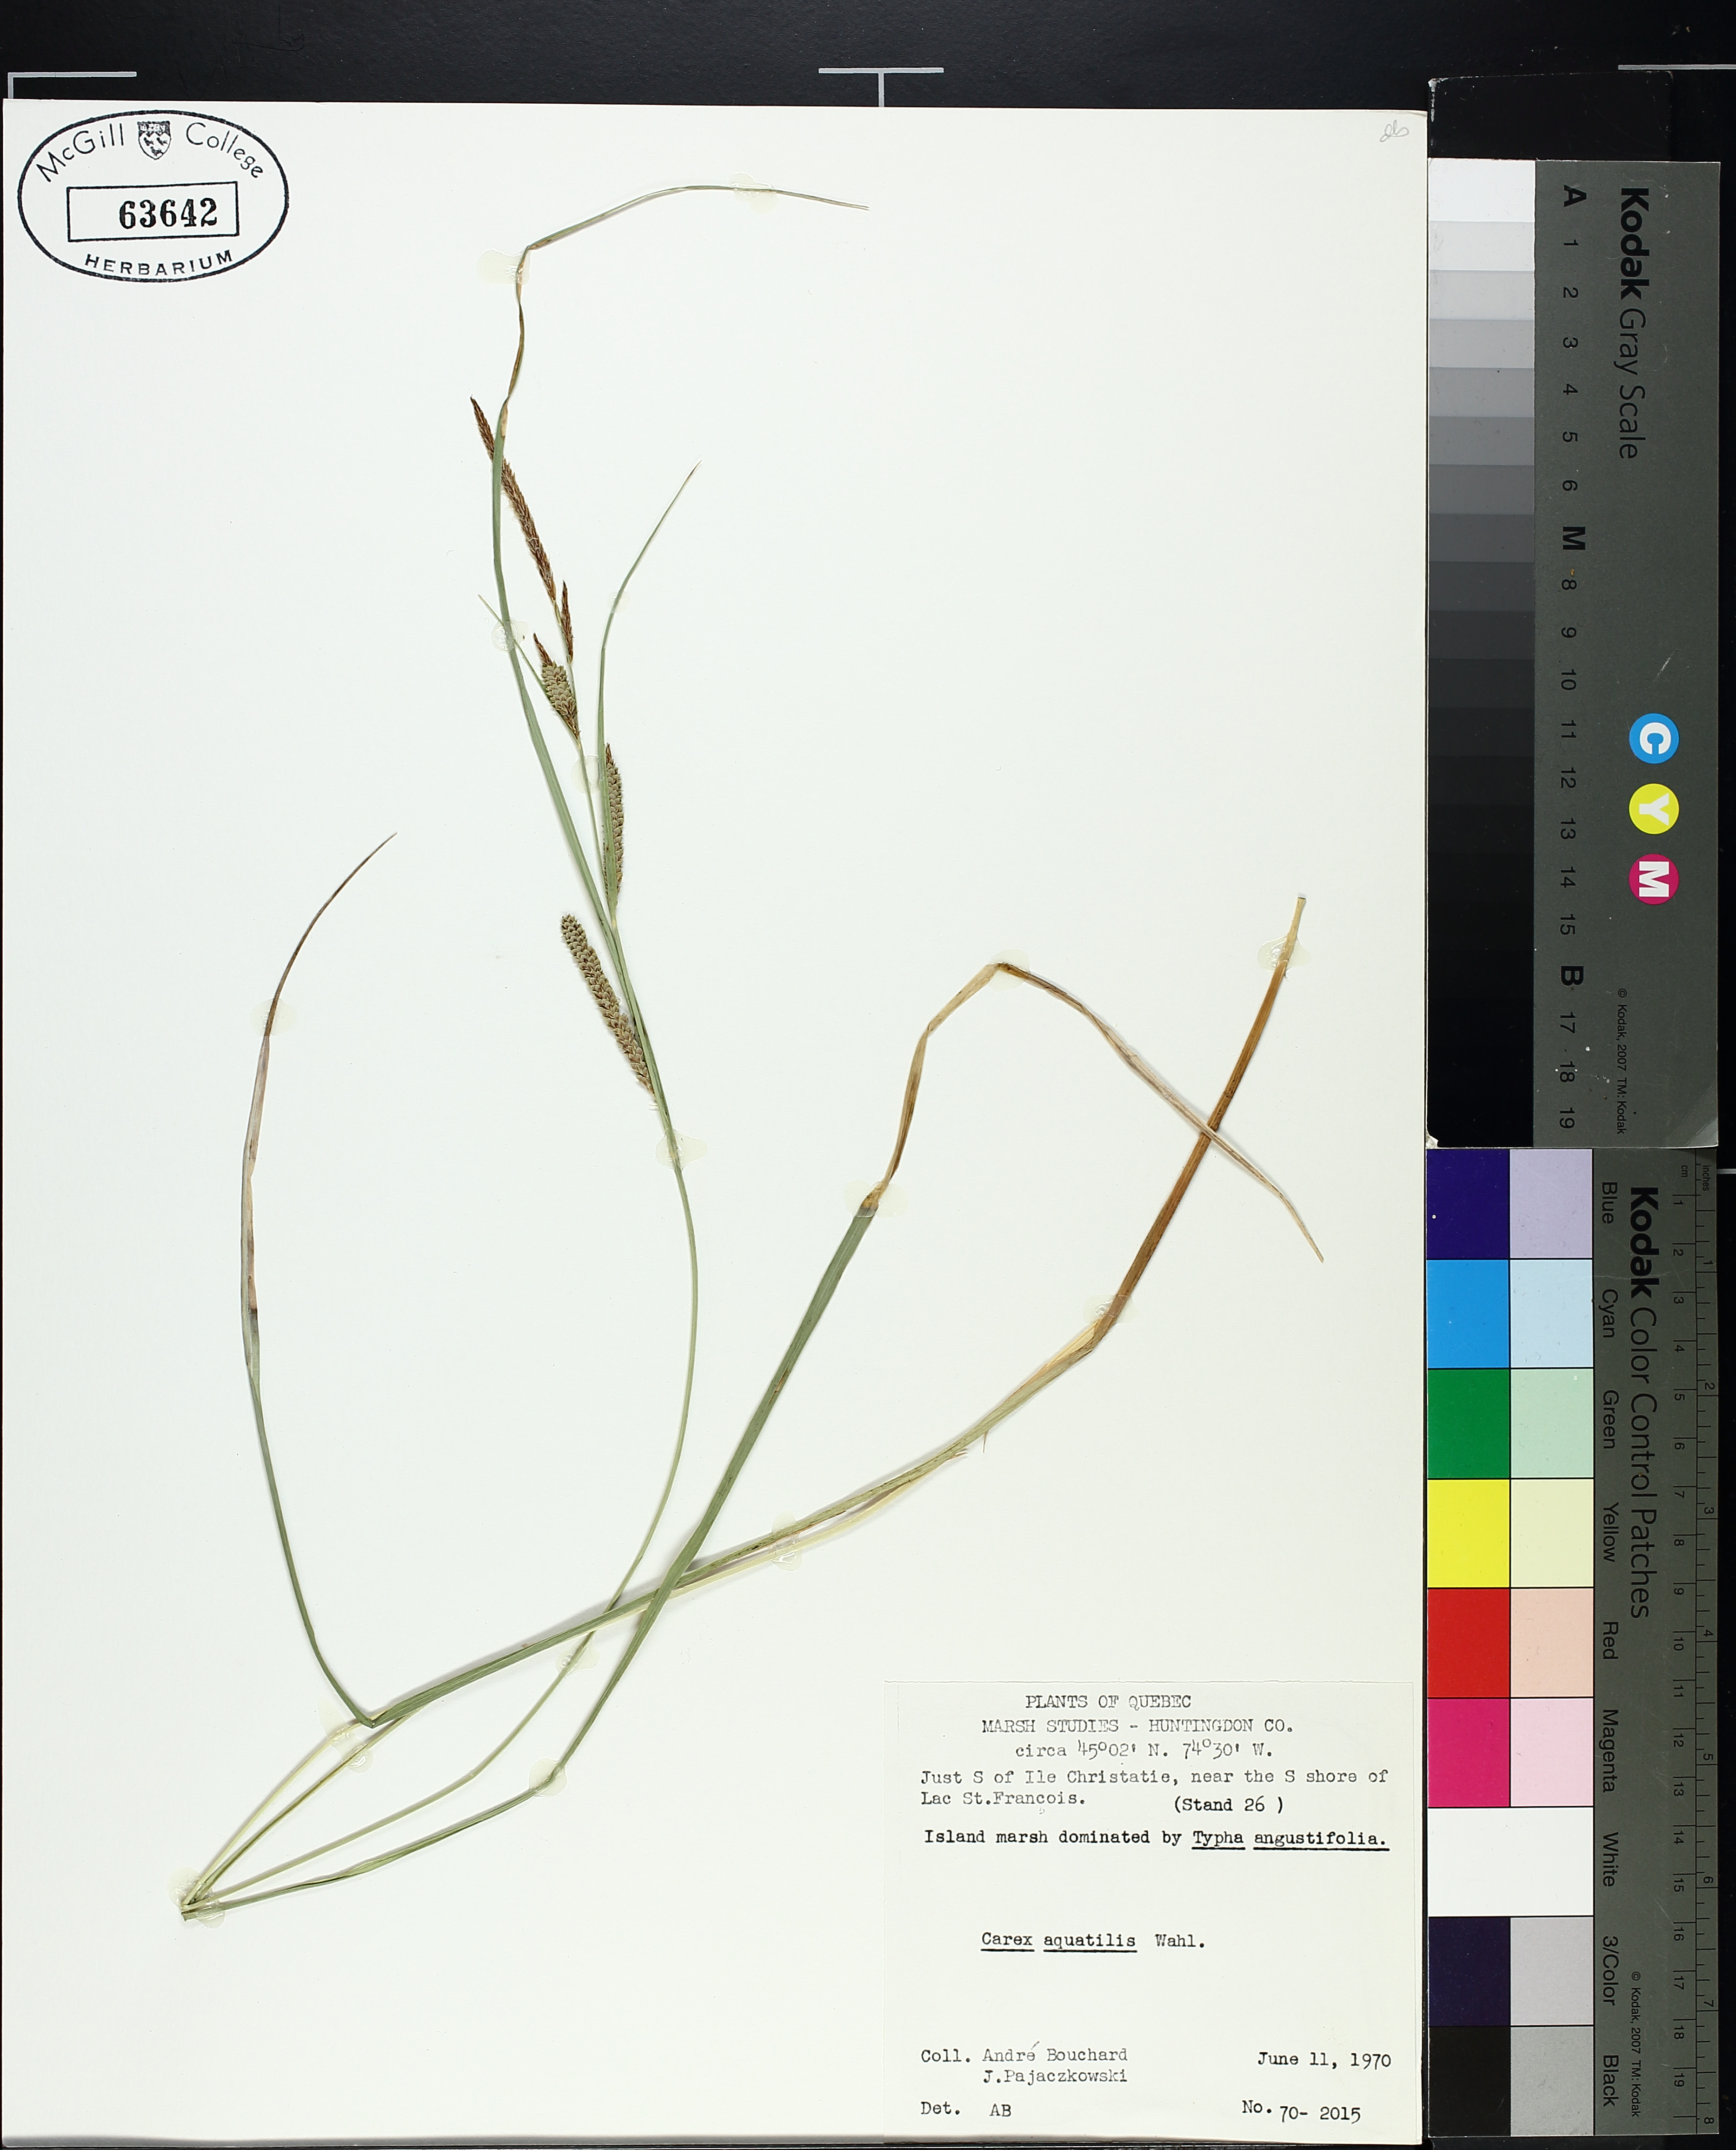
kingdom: Plantae
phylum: Tracheophyta
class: Liliopsida
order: Poales
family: Cyperaceae
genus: Carex
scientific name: Carex aquatilis
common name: Water sedge
